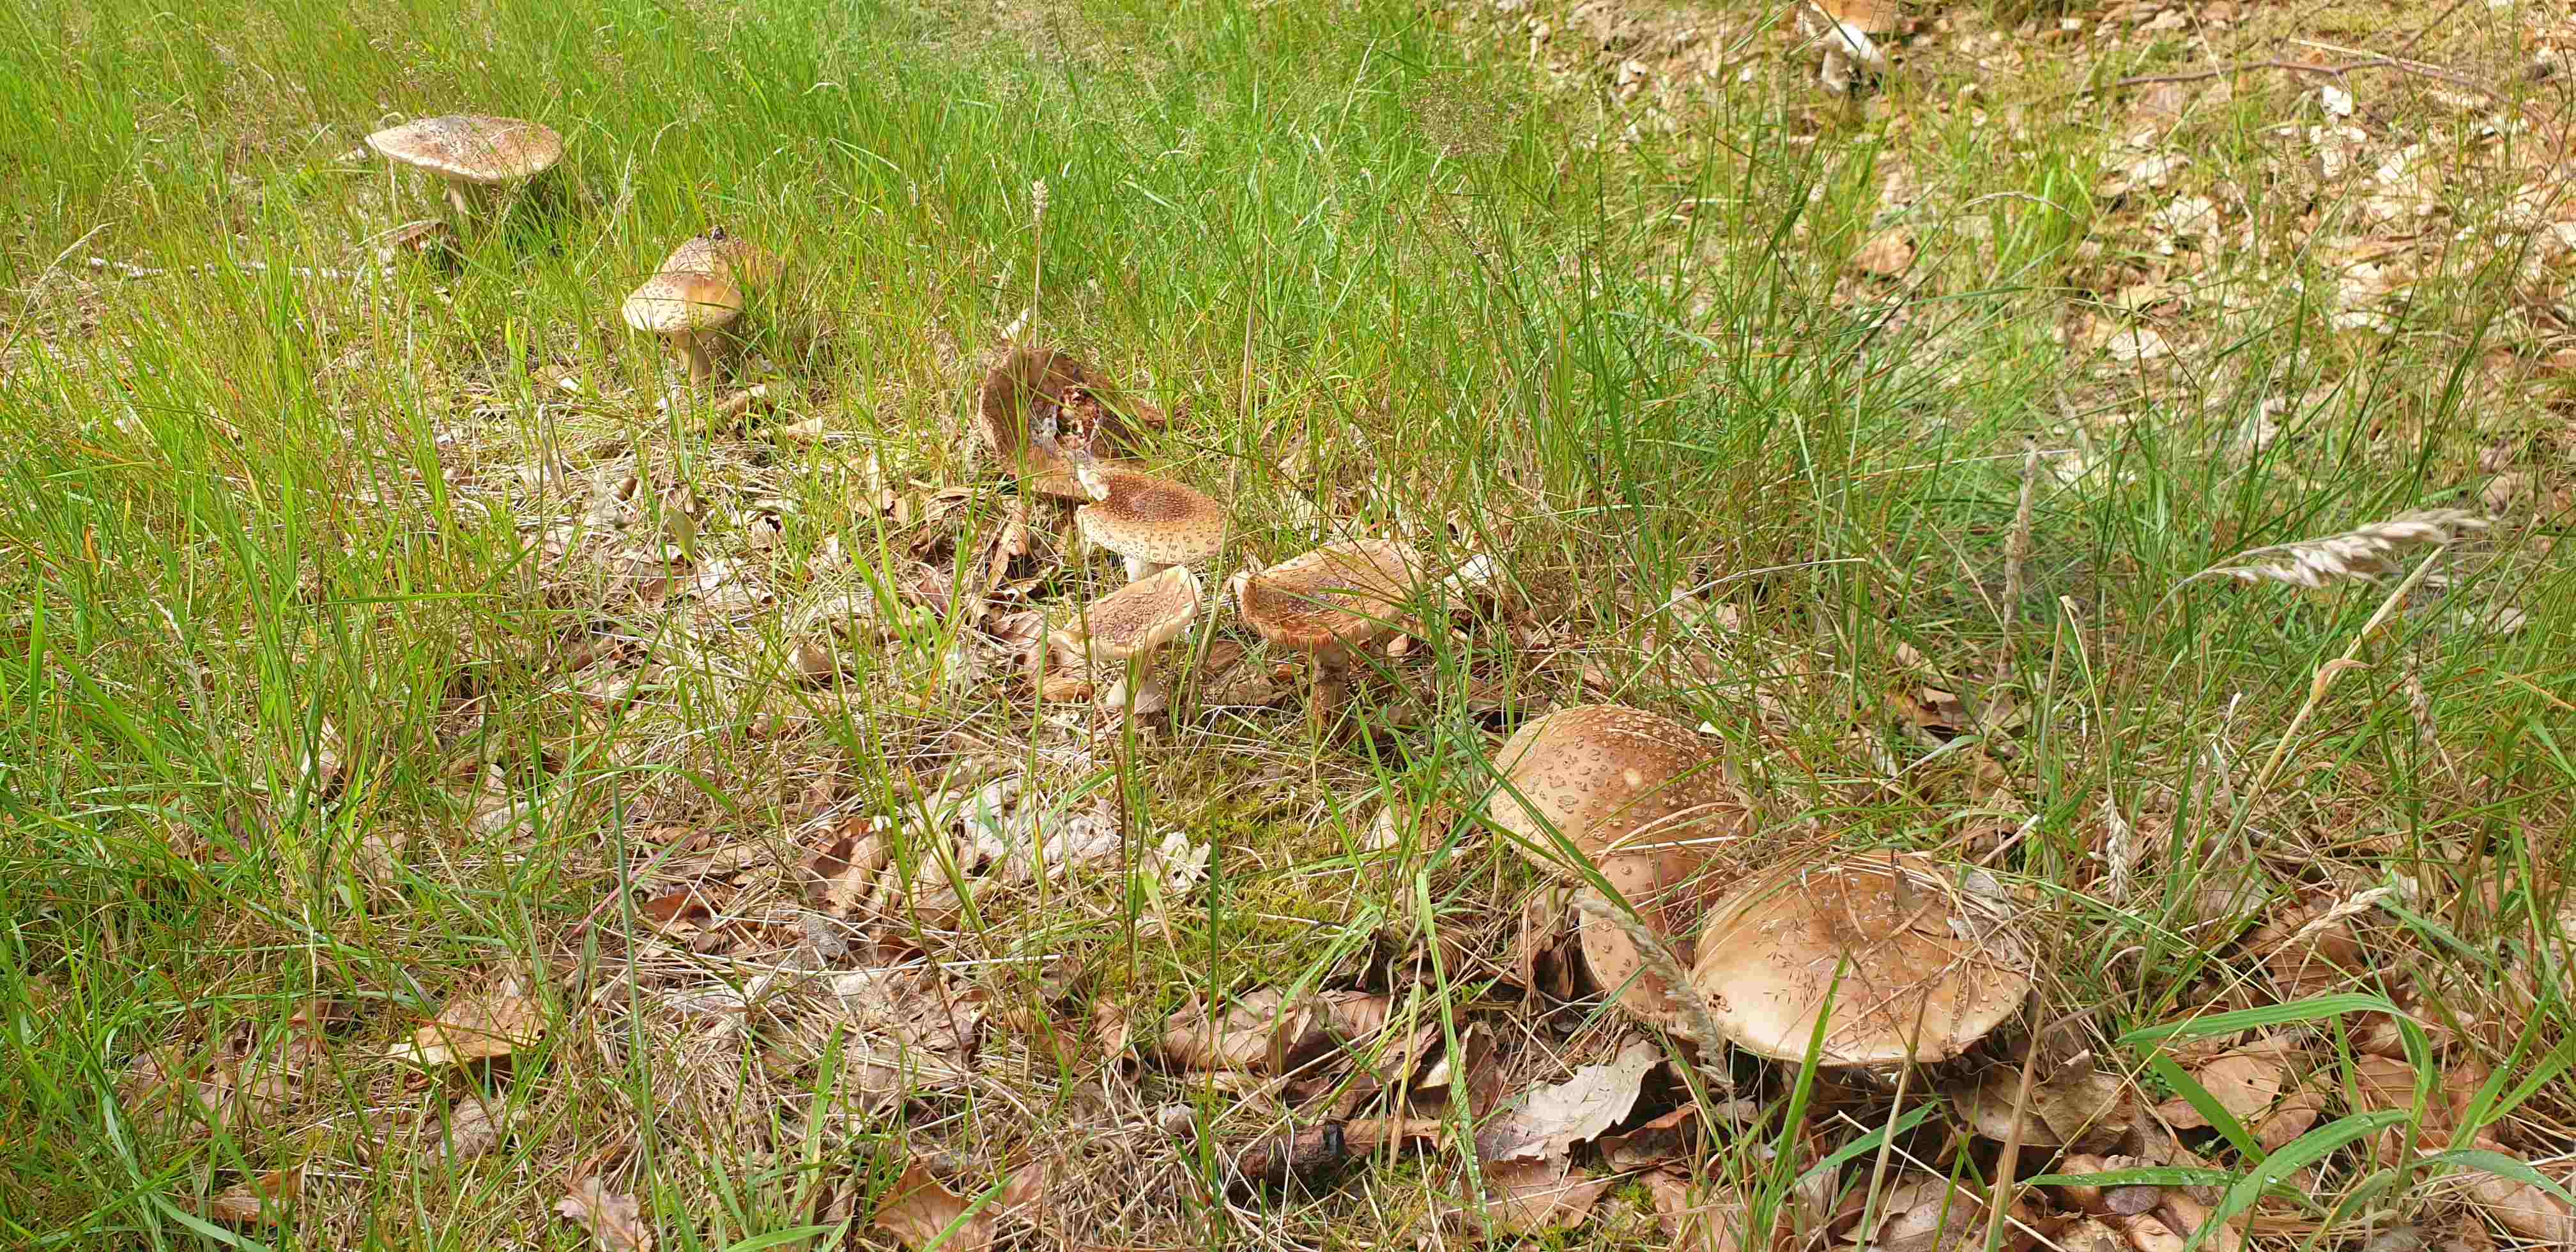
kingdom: Fungi
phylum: Basidiomycota
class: Agaricomycetes
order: Agaricales
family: Amanitaceae
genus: Amanita
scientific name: Amanita rubescens
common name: rødmende fluesvamp
